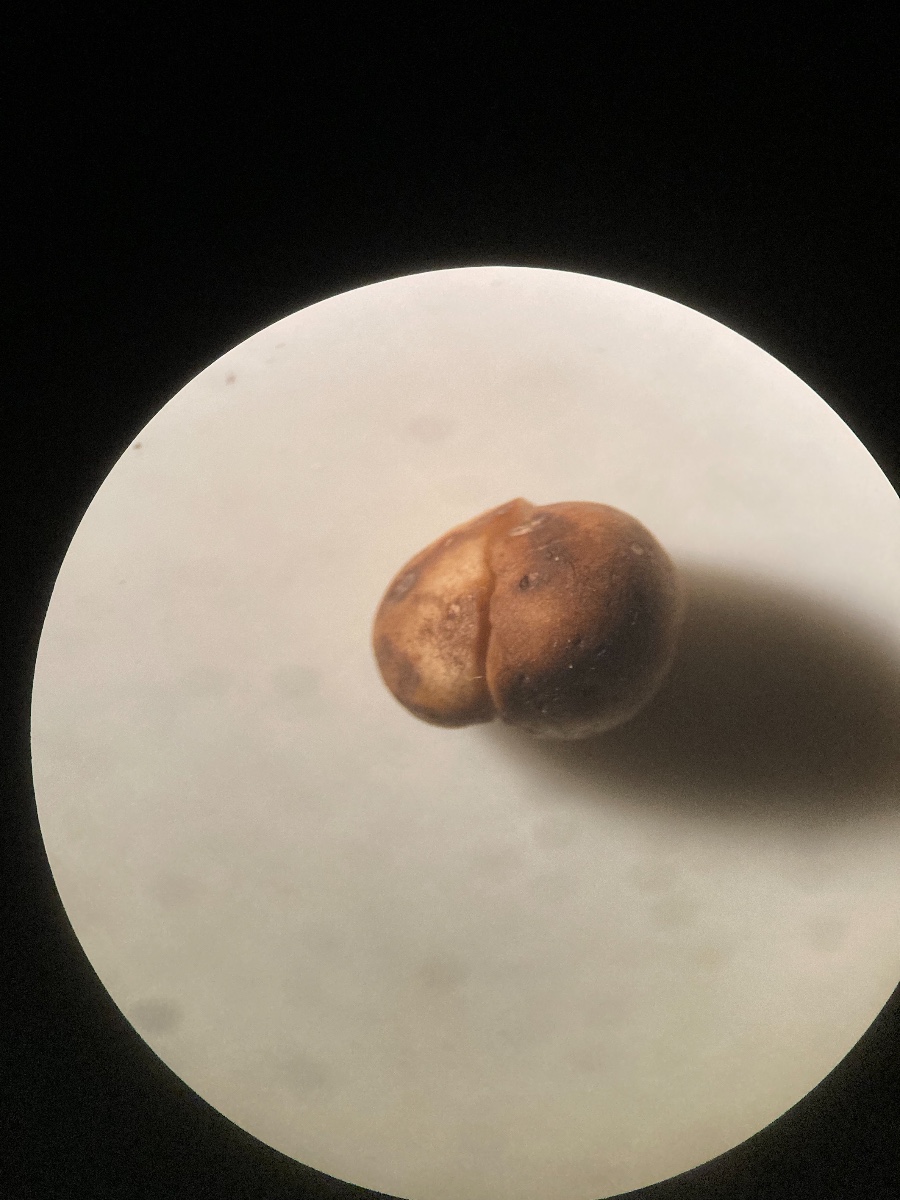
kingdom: Fungi
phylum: Basidiomycota
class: Agaricomycetes
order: Agaricales
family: Hymenogastraceae
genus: Hymenogaster
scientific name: Hymenogaster
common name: knoldtrøffel
